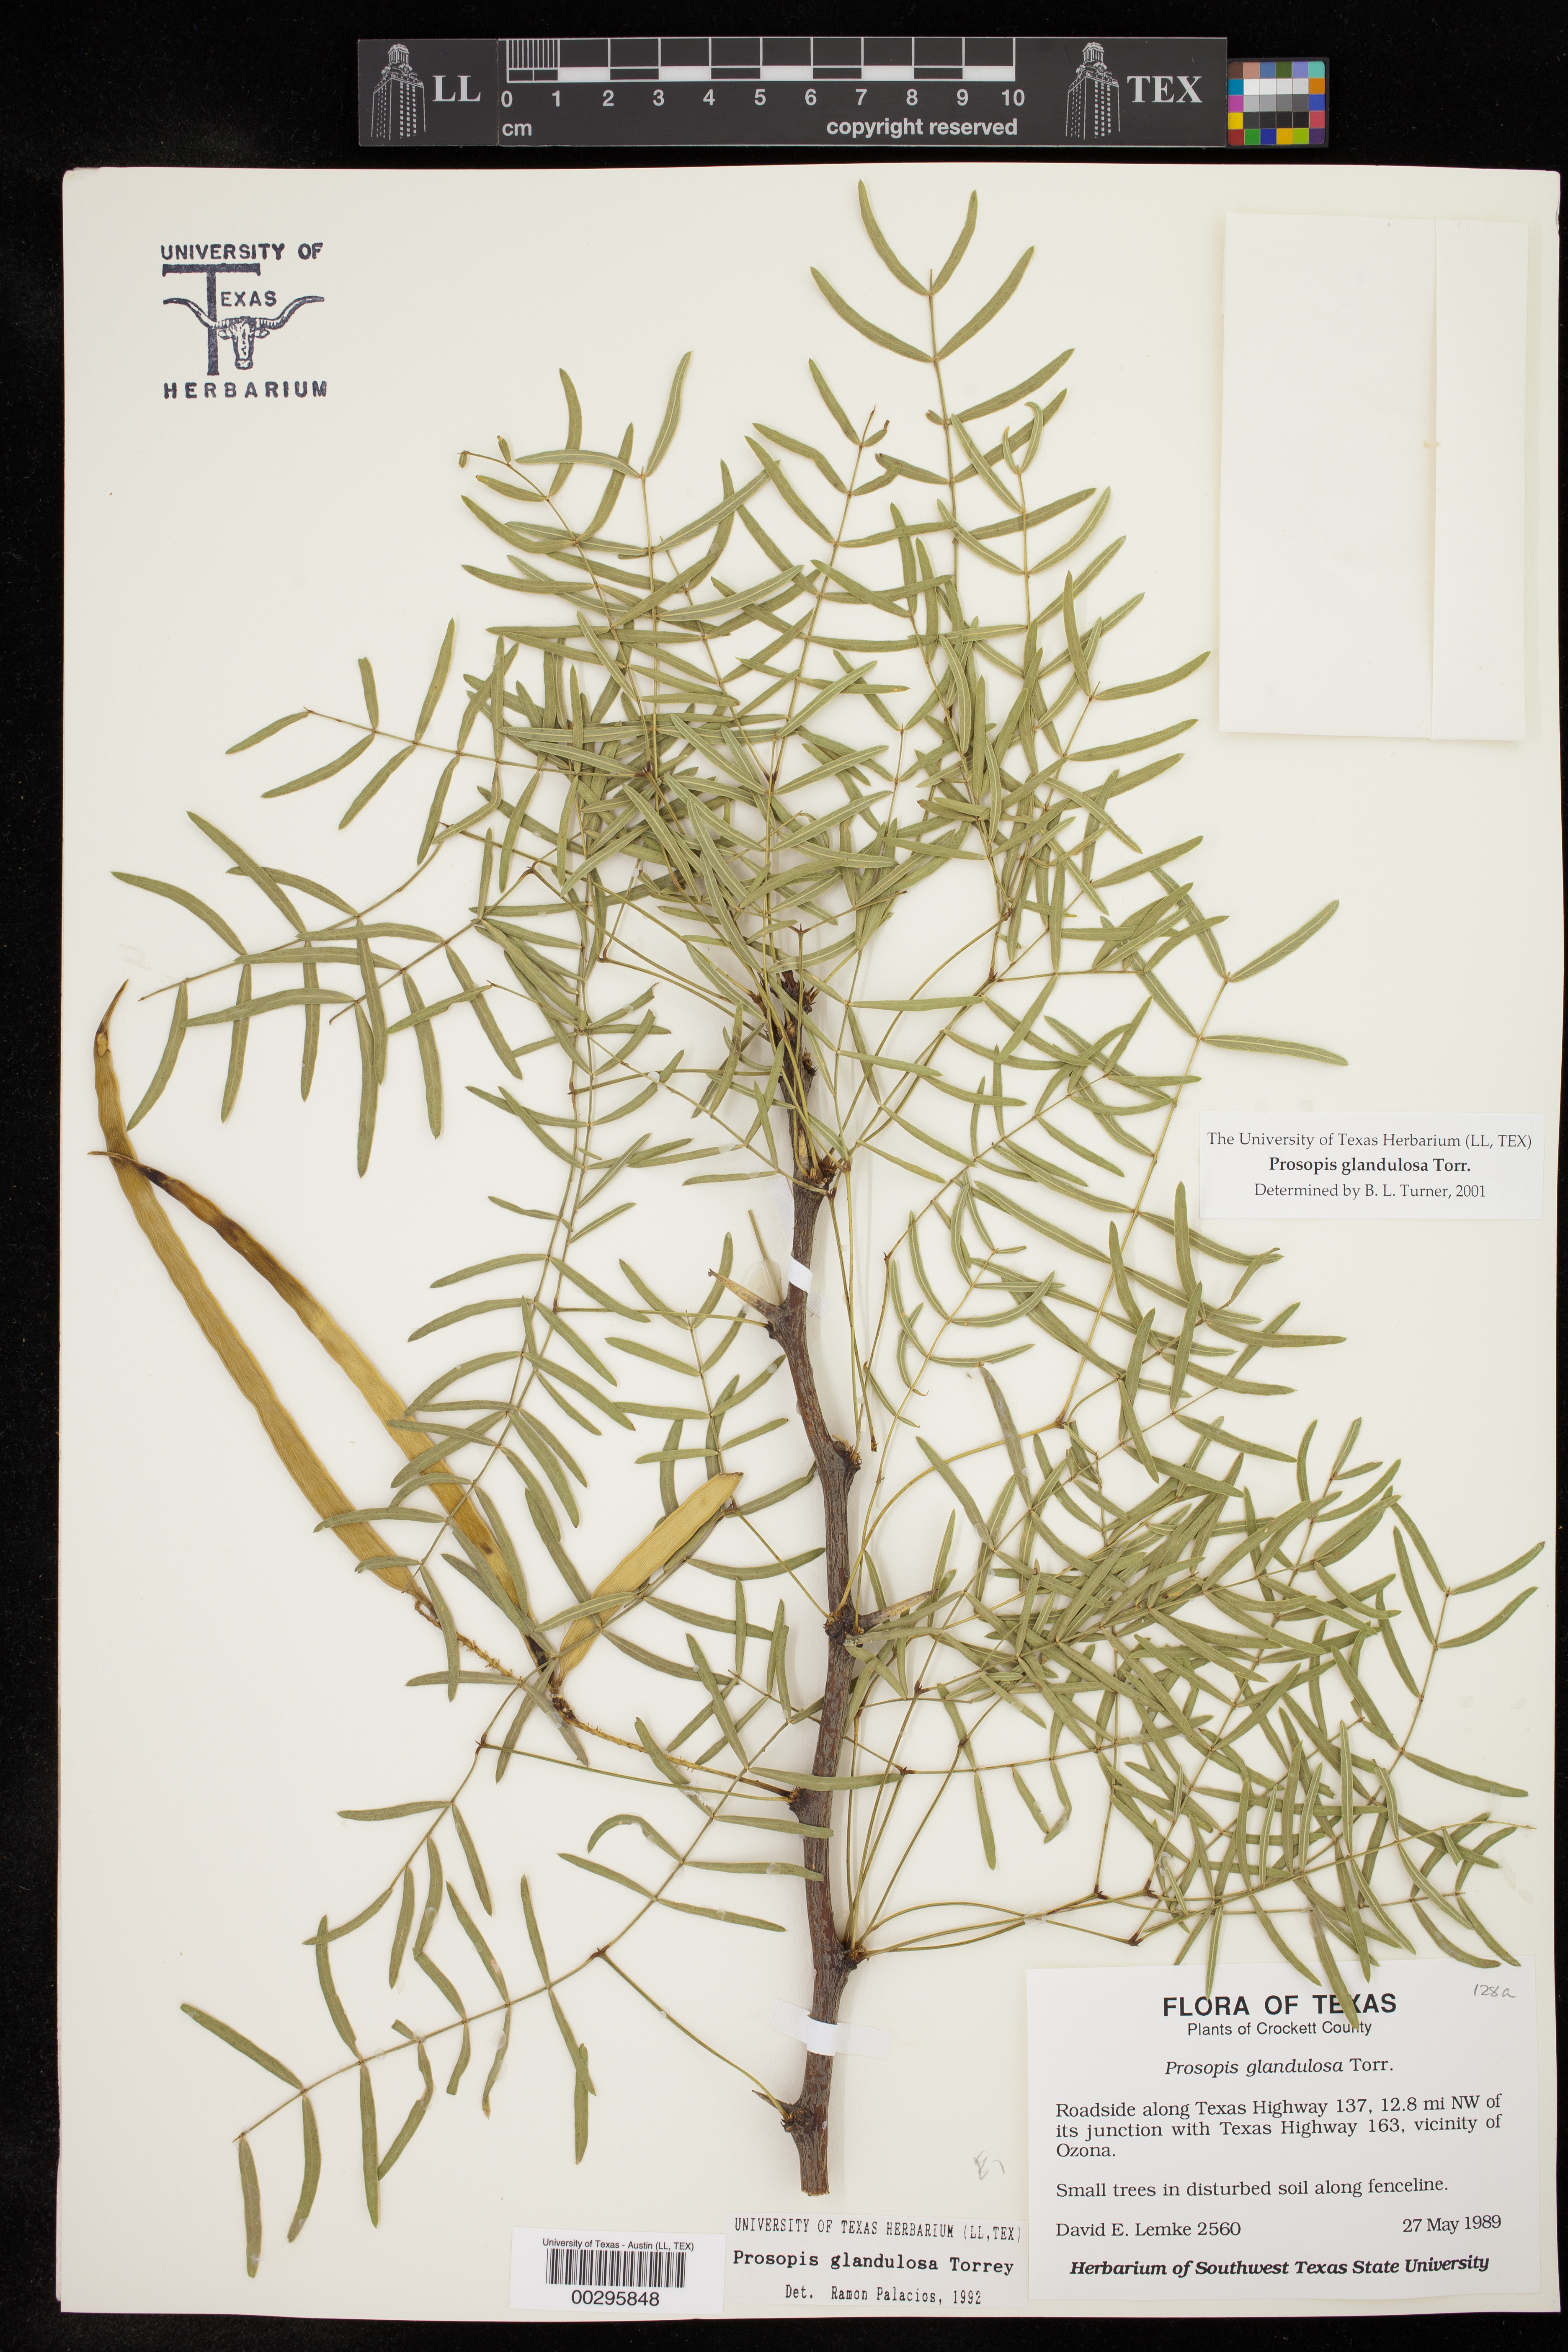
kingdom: Plantae
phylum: Tracheophyta
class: Magnoliopsida
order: Fabales
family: Fabaceae
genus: Prosopis
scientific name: Prosopis glandulosa
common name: Honey mesquite
